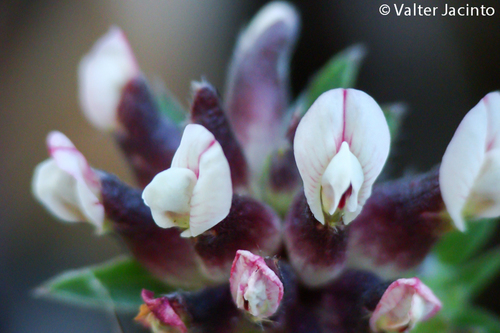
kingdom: Plantae
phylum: Tracheophyta
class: Magnoliopsida
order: Fabales
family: Fabaceae
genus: Anthyllis
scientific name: Anthyllis vulneraria
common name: Kidney vetch
